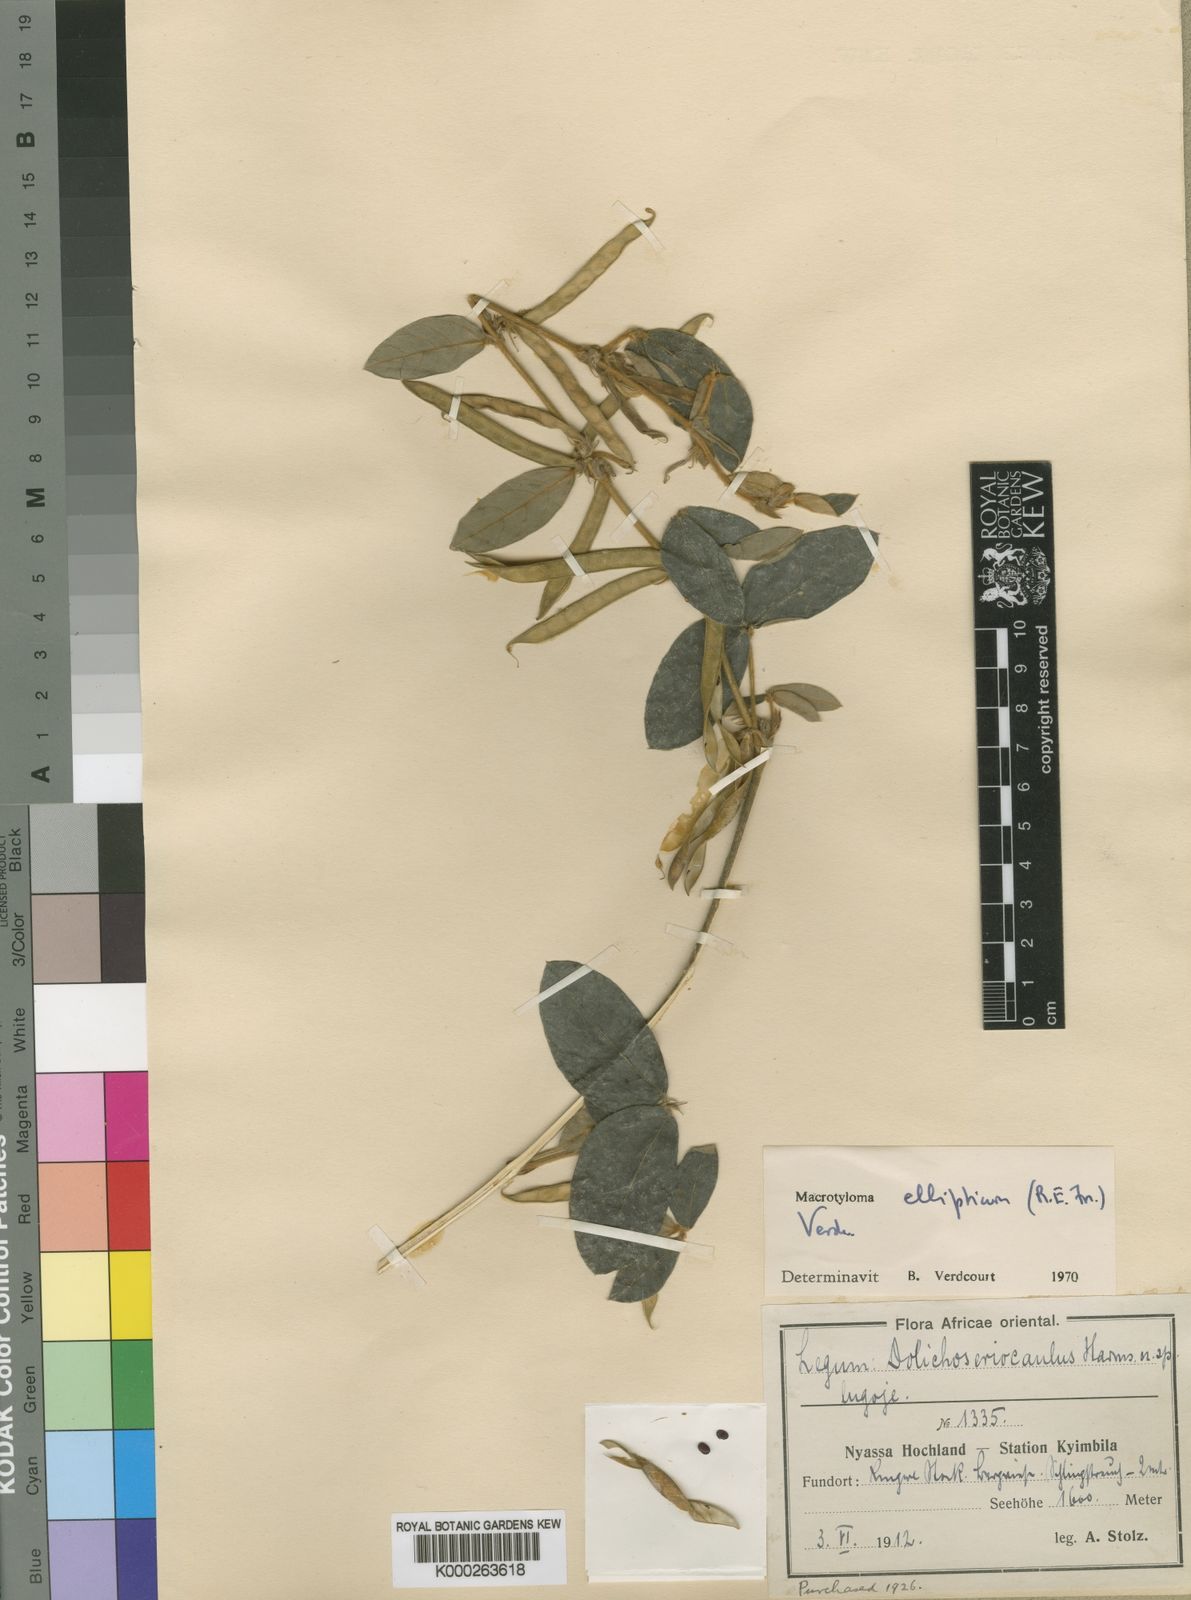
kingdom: Plantae
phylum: Tracheophyta
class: Magnoliopsida
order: Fabales
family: Fabaceae
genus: Macrotyloma
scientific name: Macrotyloma ellipticum
